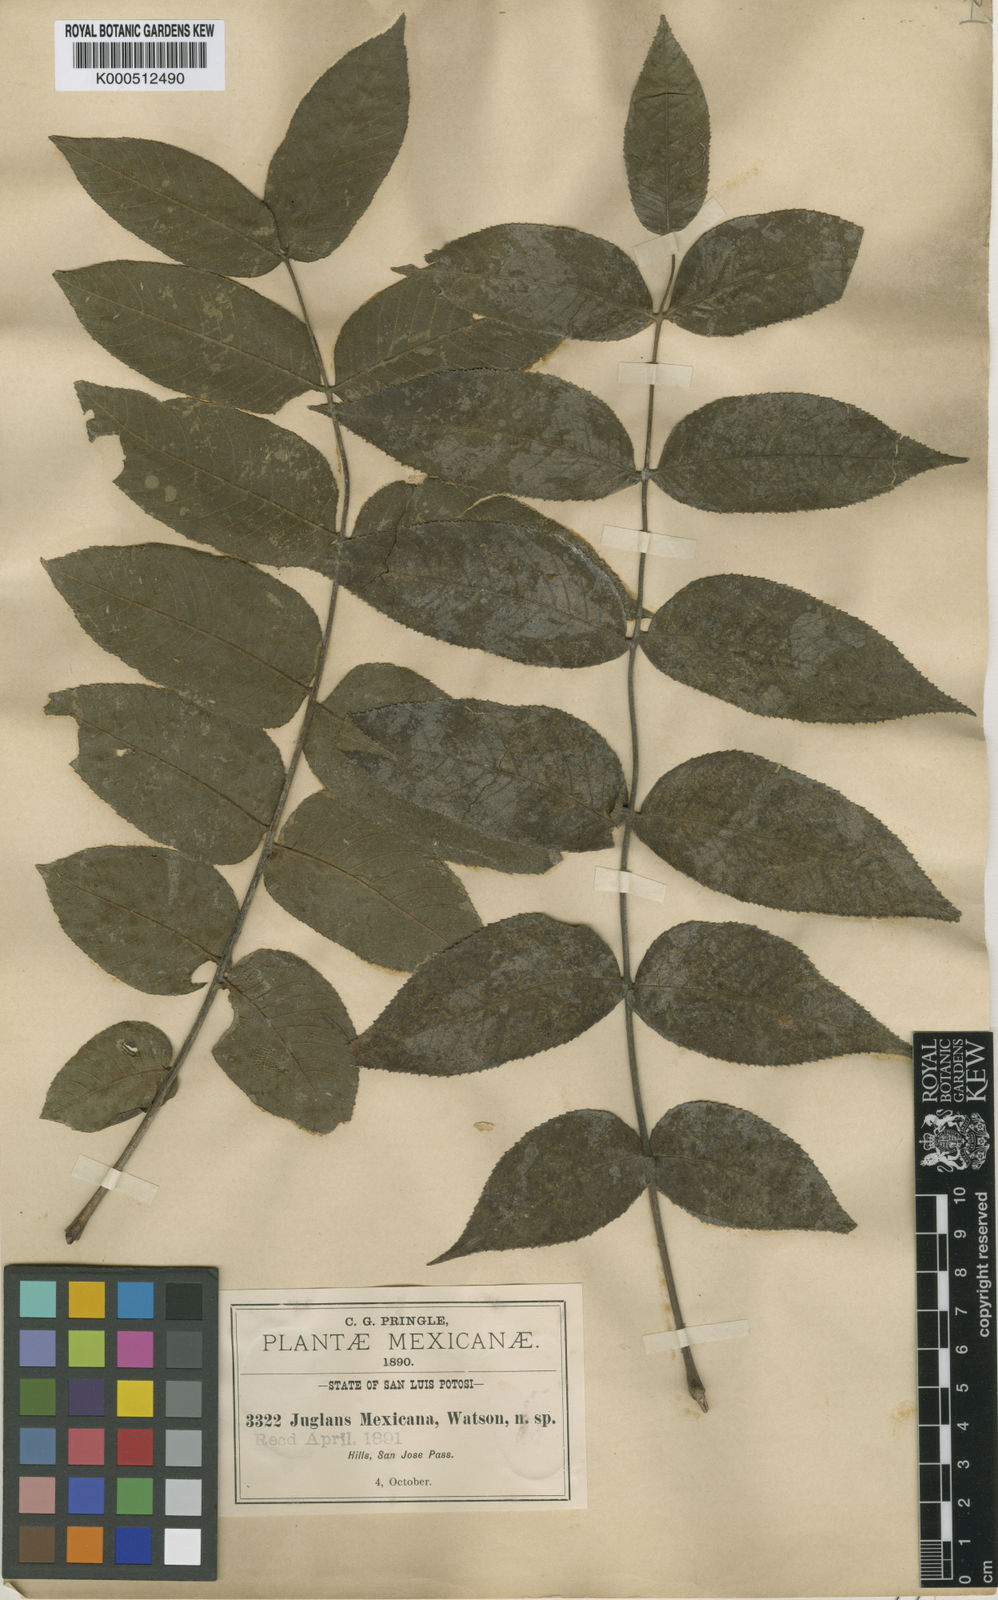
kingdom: Plantae
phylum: Tracheophyta
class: Magnoliopsida
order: Fagales
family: Juglandaceae
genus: Juglans
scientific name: Juglans mollis
